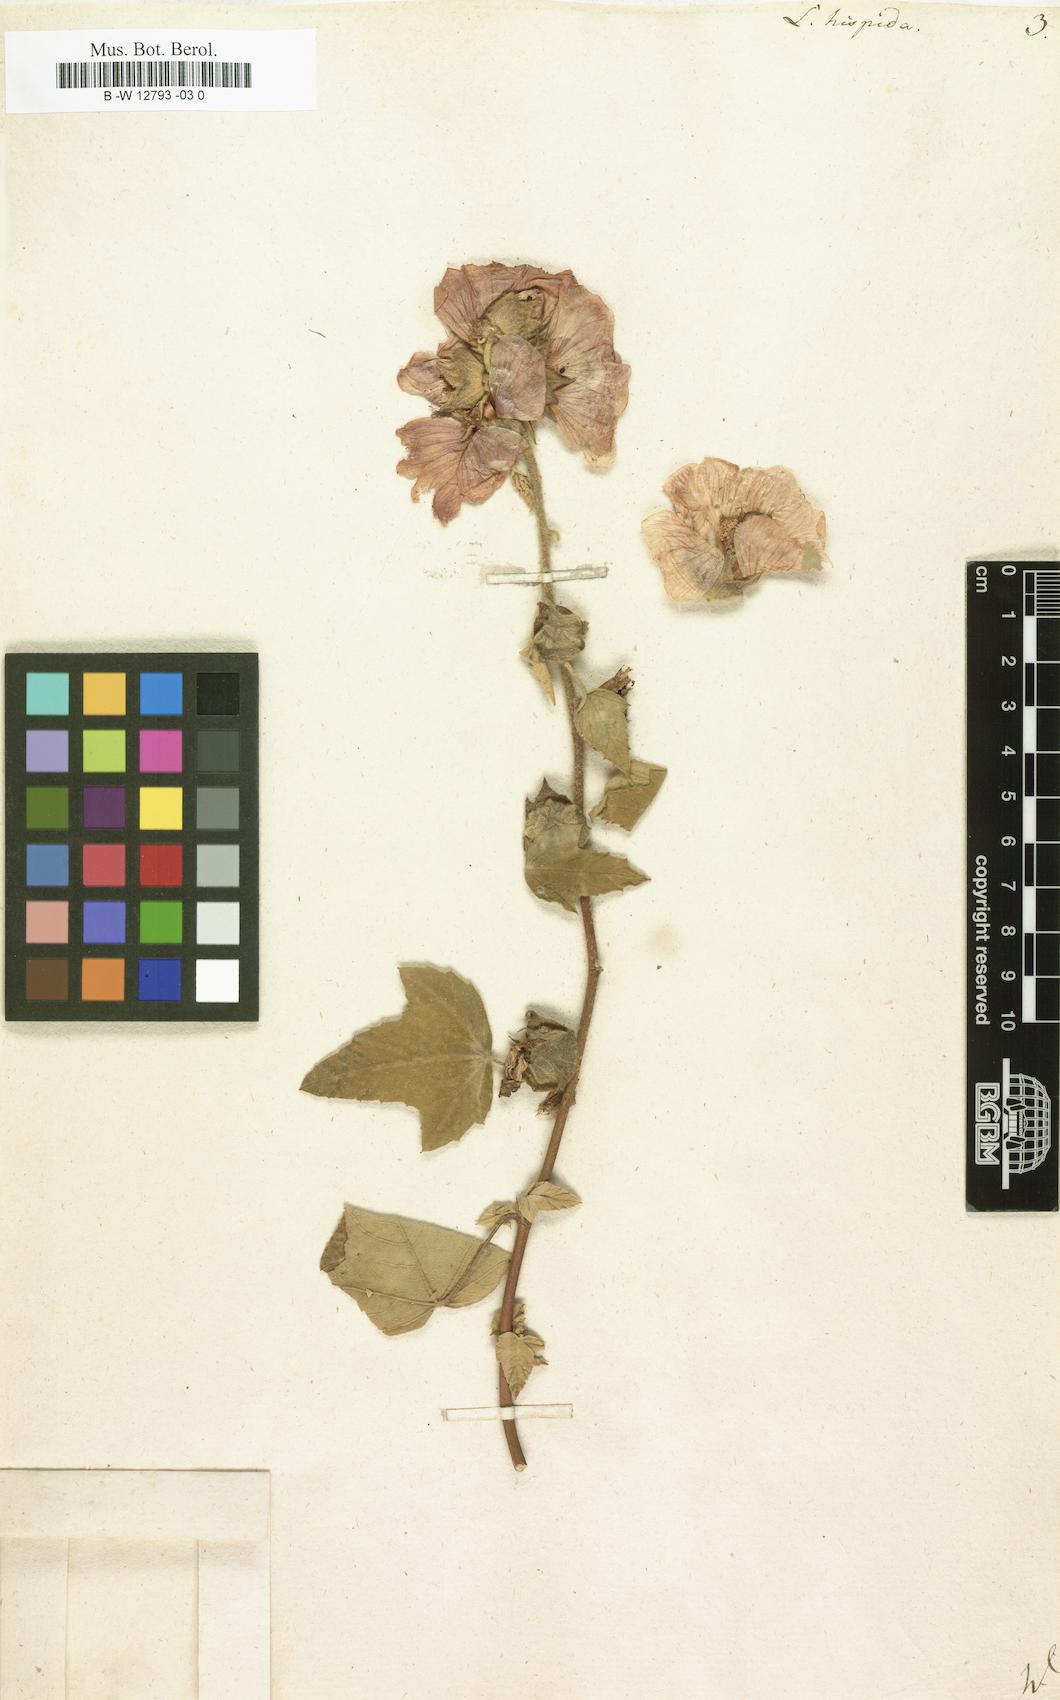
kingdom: Plantae
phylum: Tracheophyta
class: Magnoliopsida
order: Malvales
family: Malvaceae
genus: Malva
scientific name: Malva
